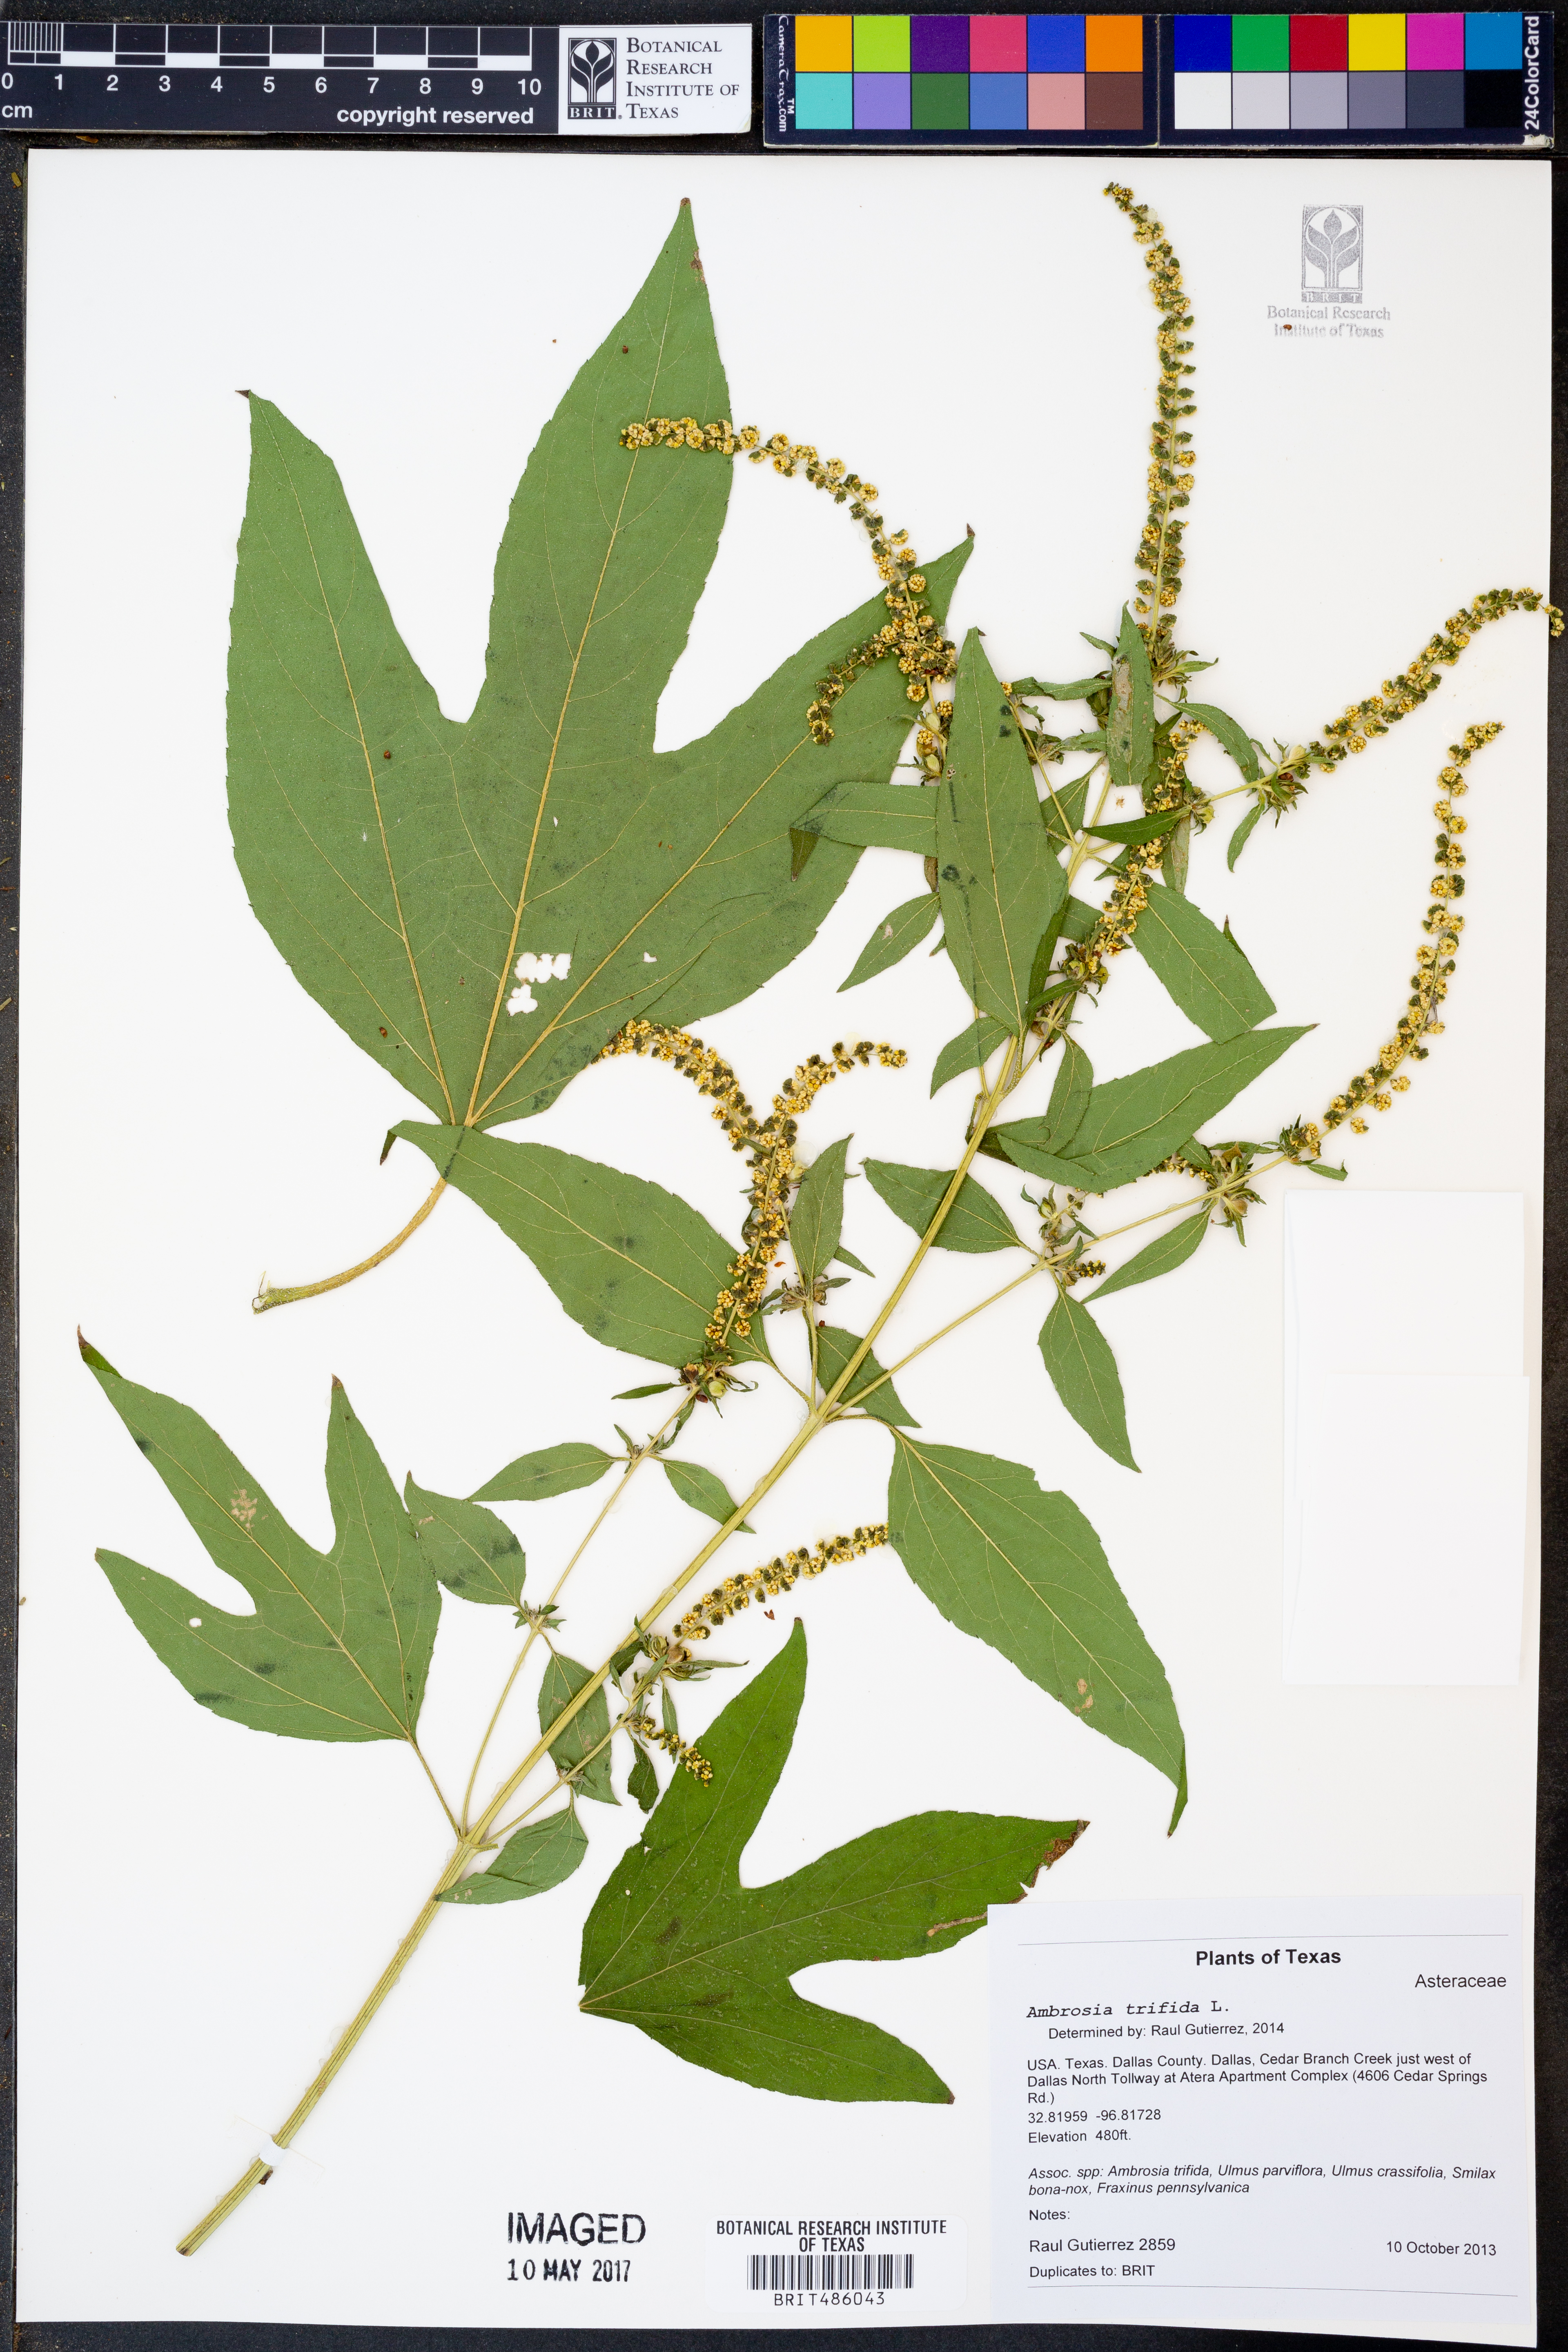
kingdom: Plantae
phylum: Tracheophyta
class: Magnoliopsida
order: Asterales
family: Asteraceae
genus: Ambrosia
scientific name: Ambrosia trifida
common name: Giant ragweed
